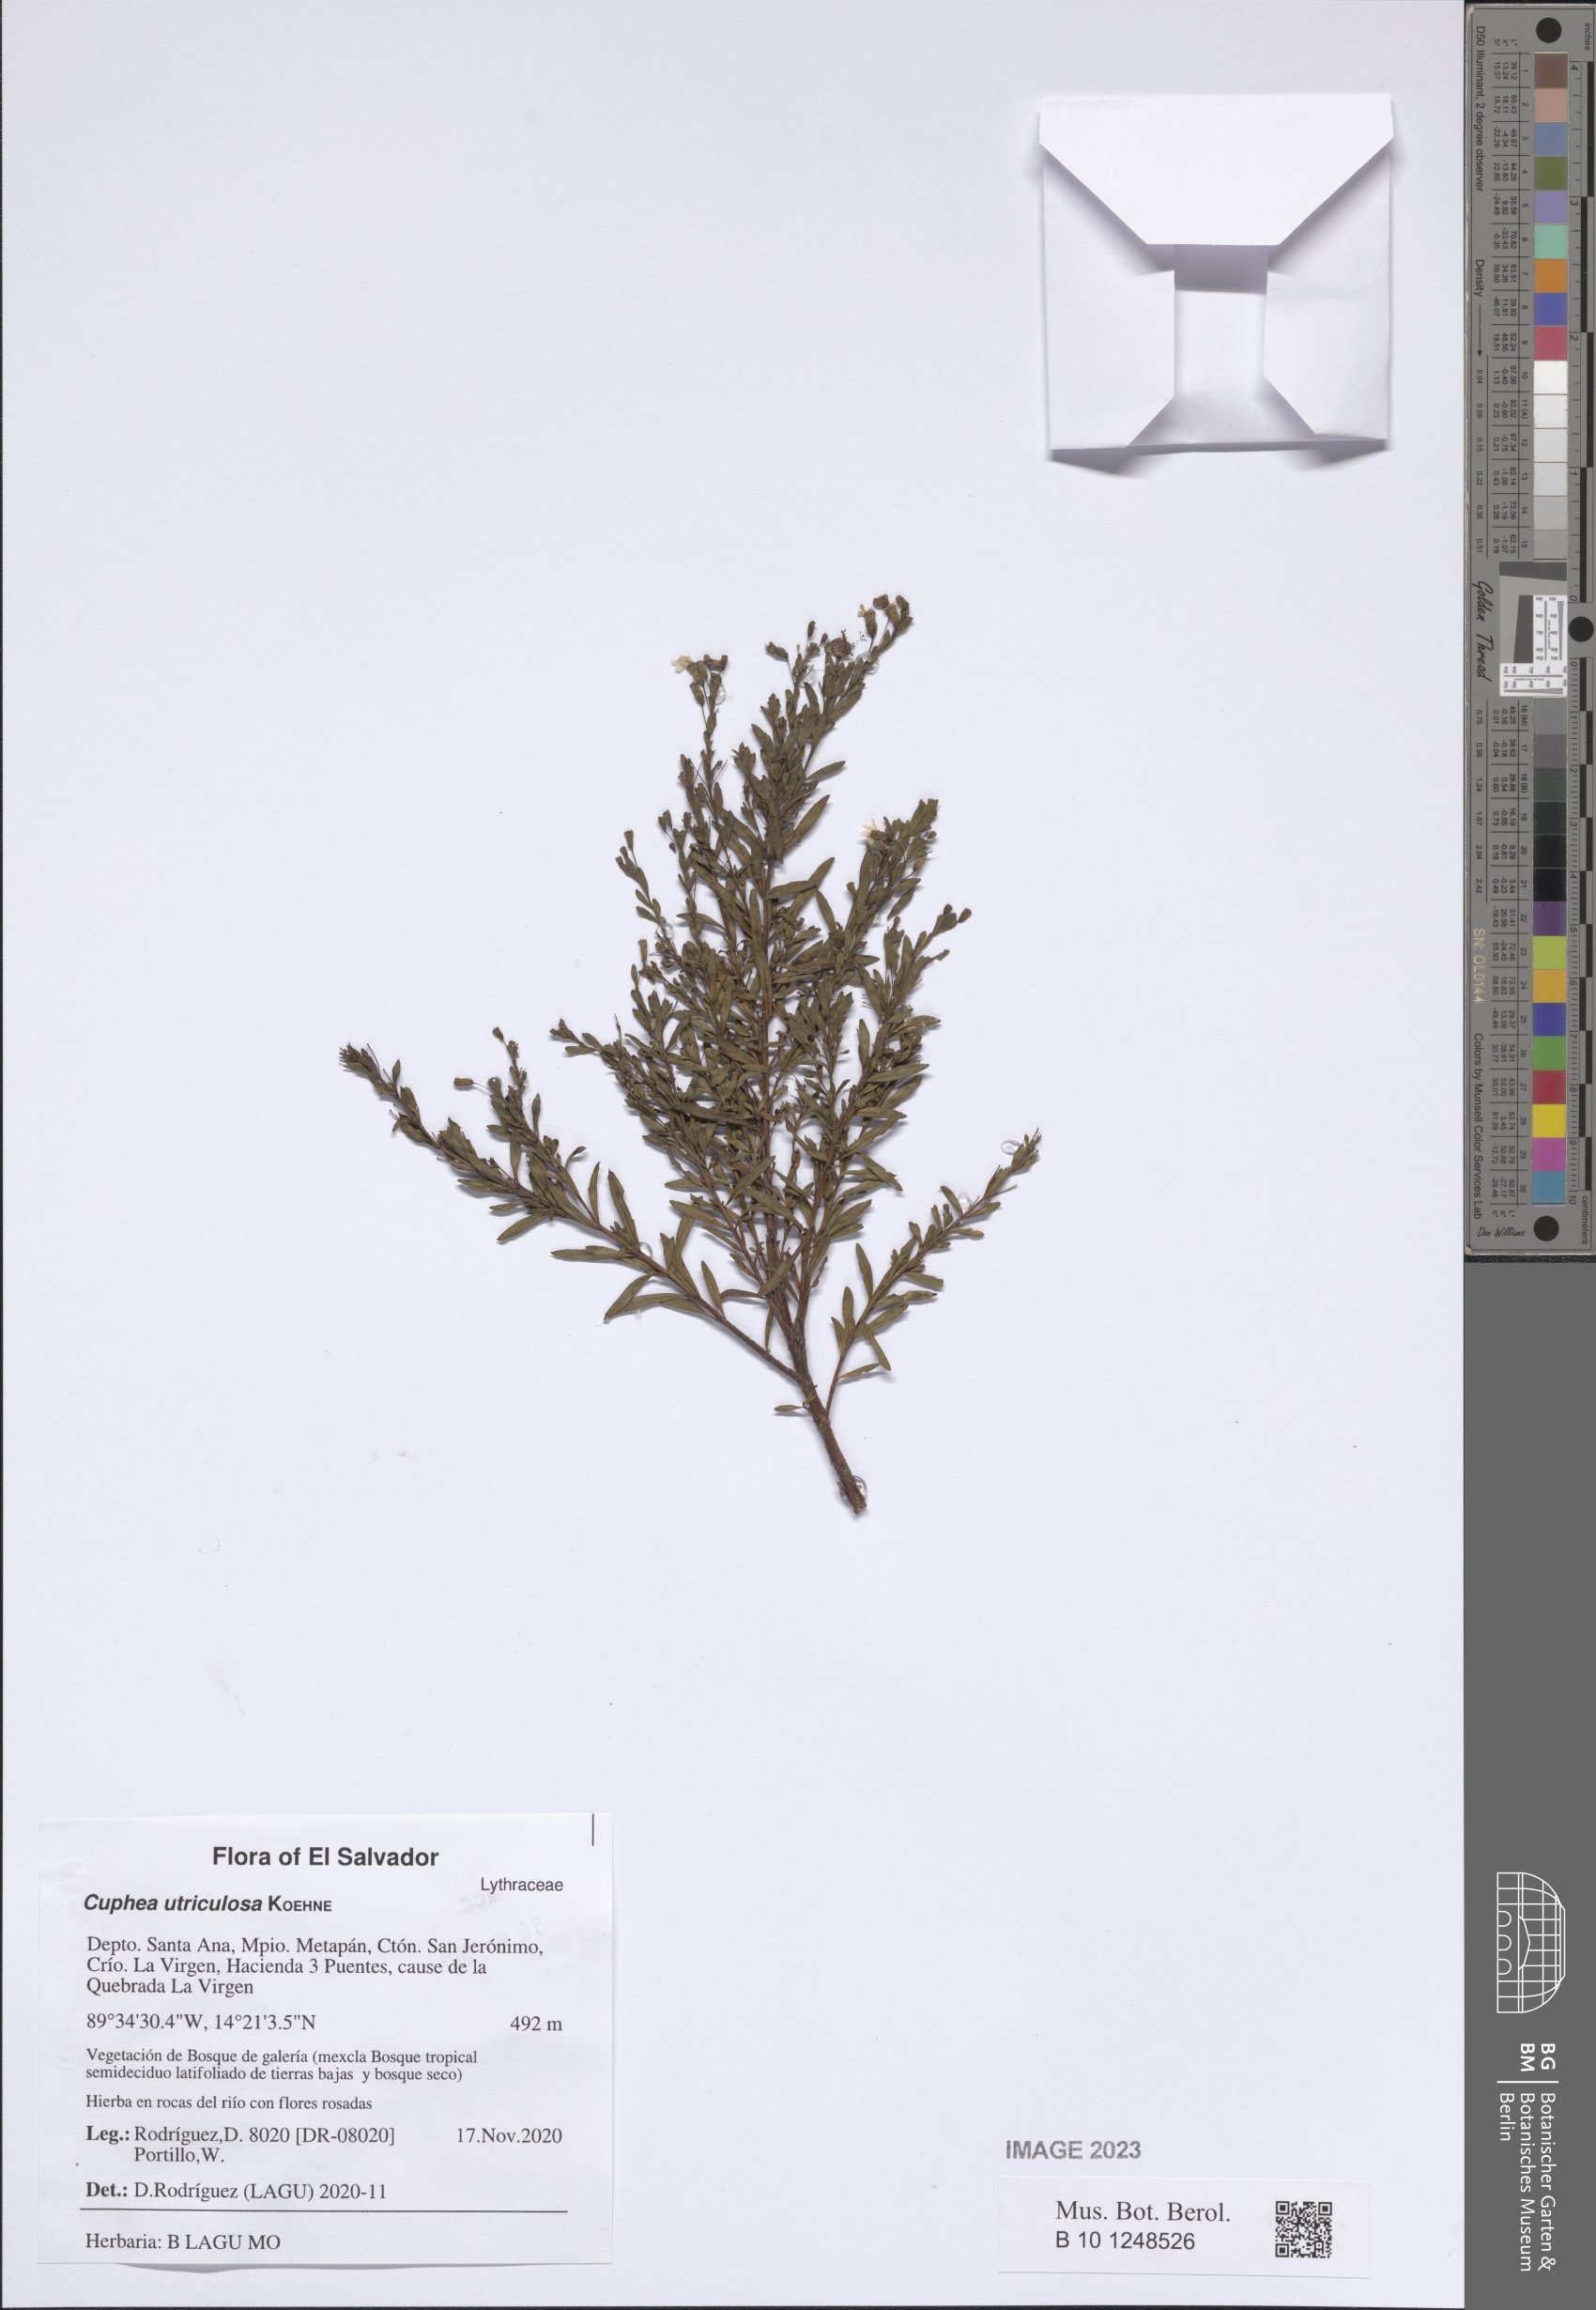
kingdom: Plantae
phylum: Tracheophyta
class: Magnoliopsida
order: Myrtales
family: Lythraceae
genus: Cuphea
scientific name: Cuphea utriculosa
